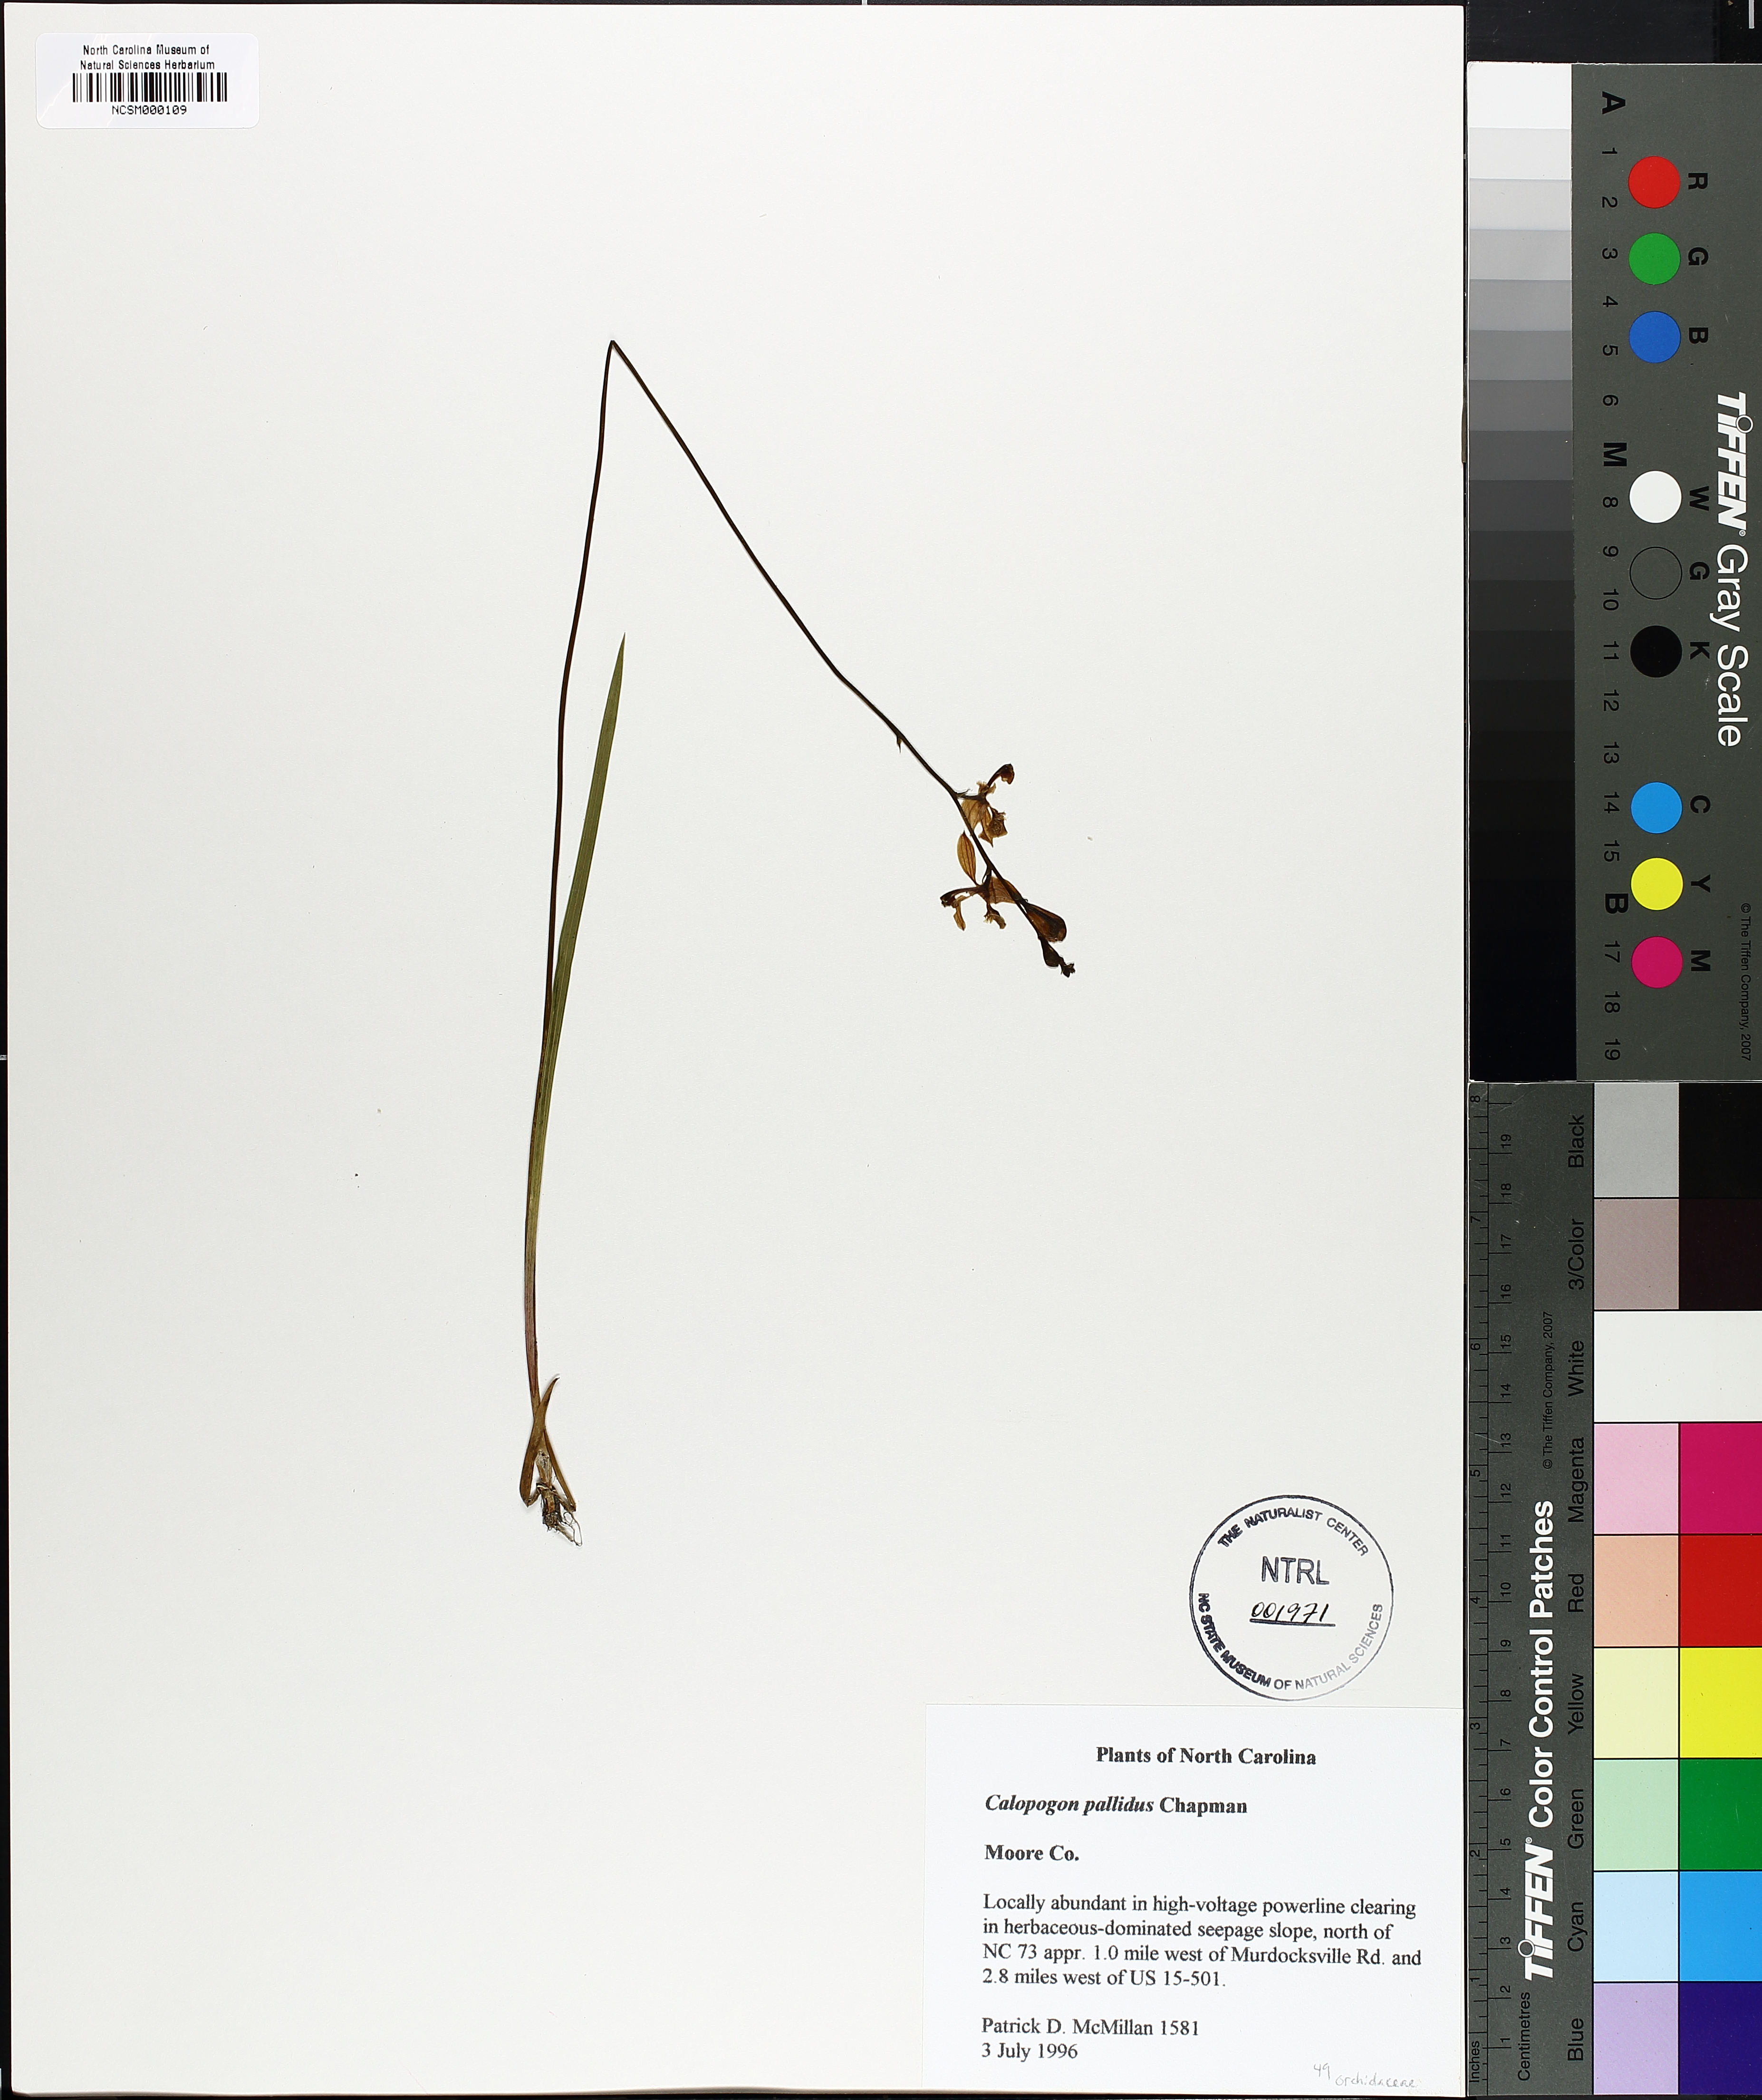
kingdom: Plantae
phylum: Tracheophyta
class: Liliopsida
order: Asparagales
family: Orchidaceae
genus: Calopogon
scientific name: Calopogon pallidus
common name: Pale grasspink
